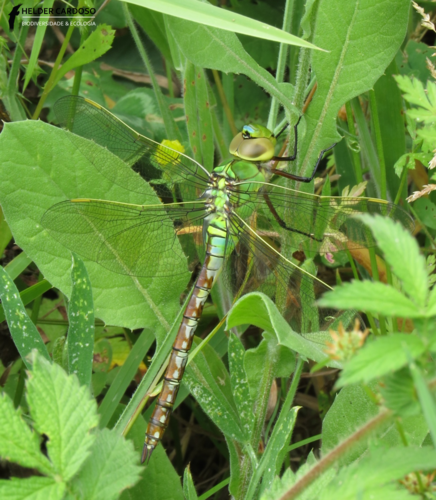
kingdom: Animalia
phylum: Arthropoda
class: Insecta
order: Odonata
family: Aeshnidae
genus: Anax
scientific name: Anax imperator
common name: Emperor dragonfly
